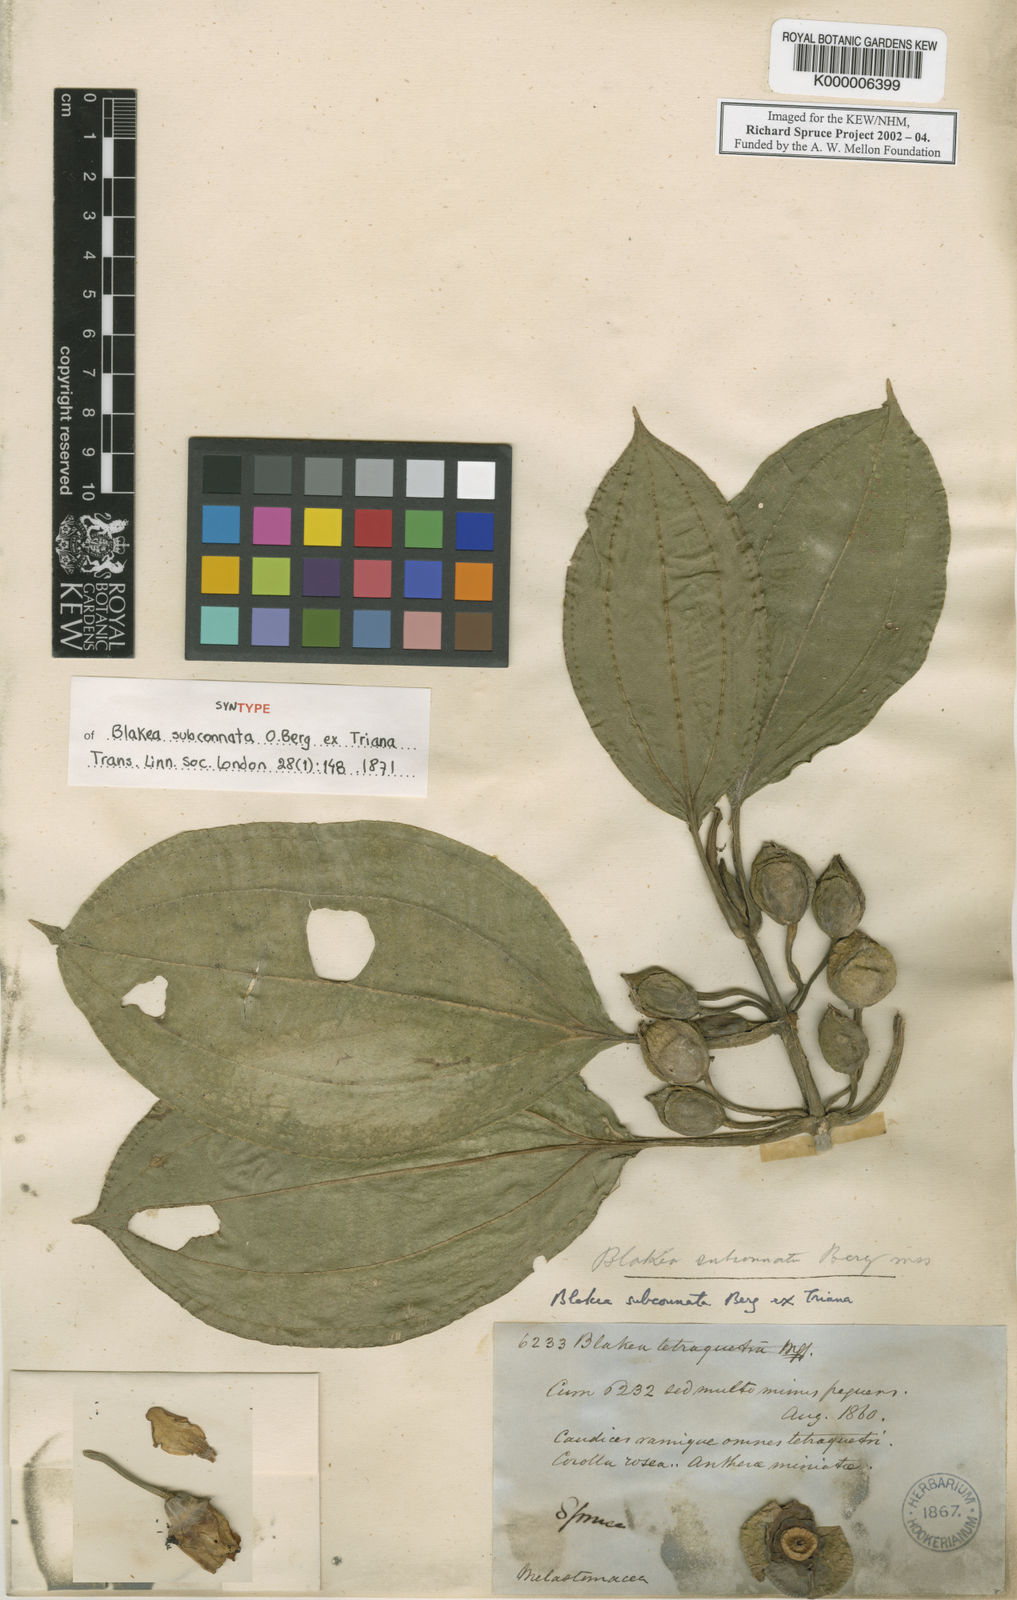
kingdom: Plantae
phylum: Tracheophyta
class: Magnoliopsida
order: Myrtales
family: Melastomataceae
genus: Blakea
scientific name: Blakea subconnata
